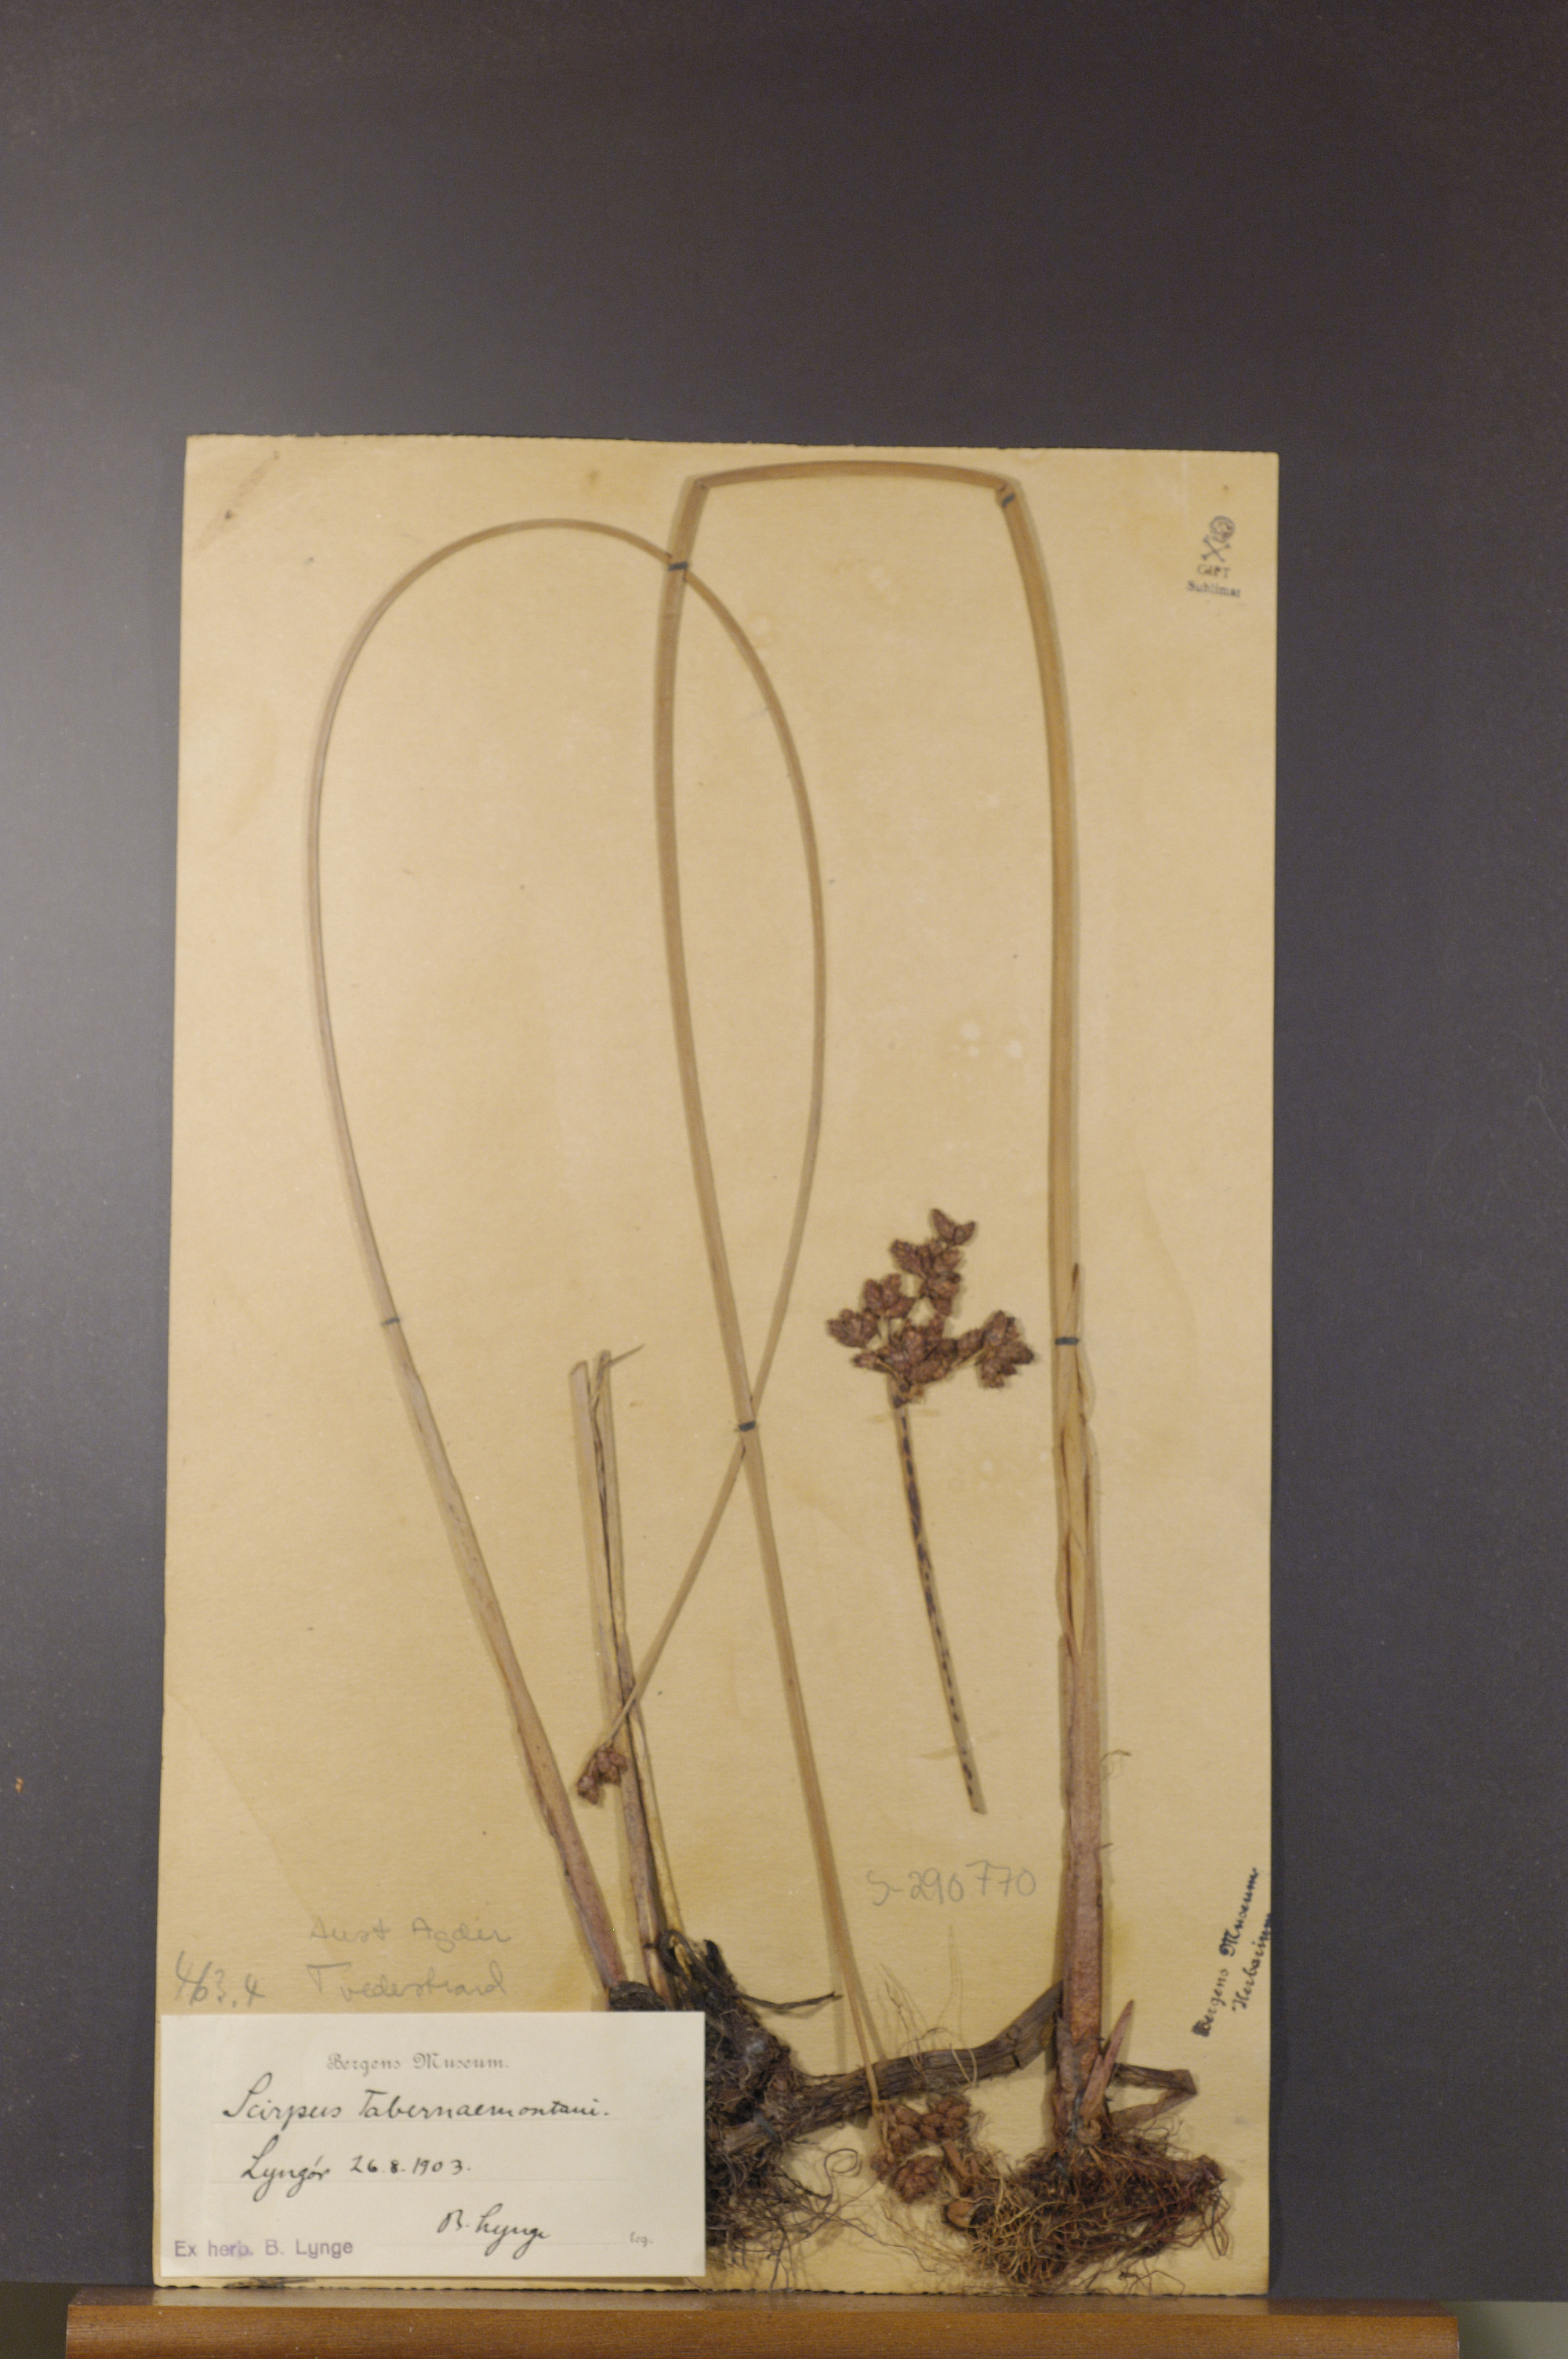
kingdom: Plantae
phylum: Tracheophyta
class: Liliopsida
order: Poales
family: Cyperaceae
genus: Schoenoplectus
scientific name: Schoenoplectus tabernaemontani
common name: Grey club-rush
